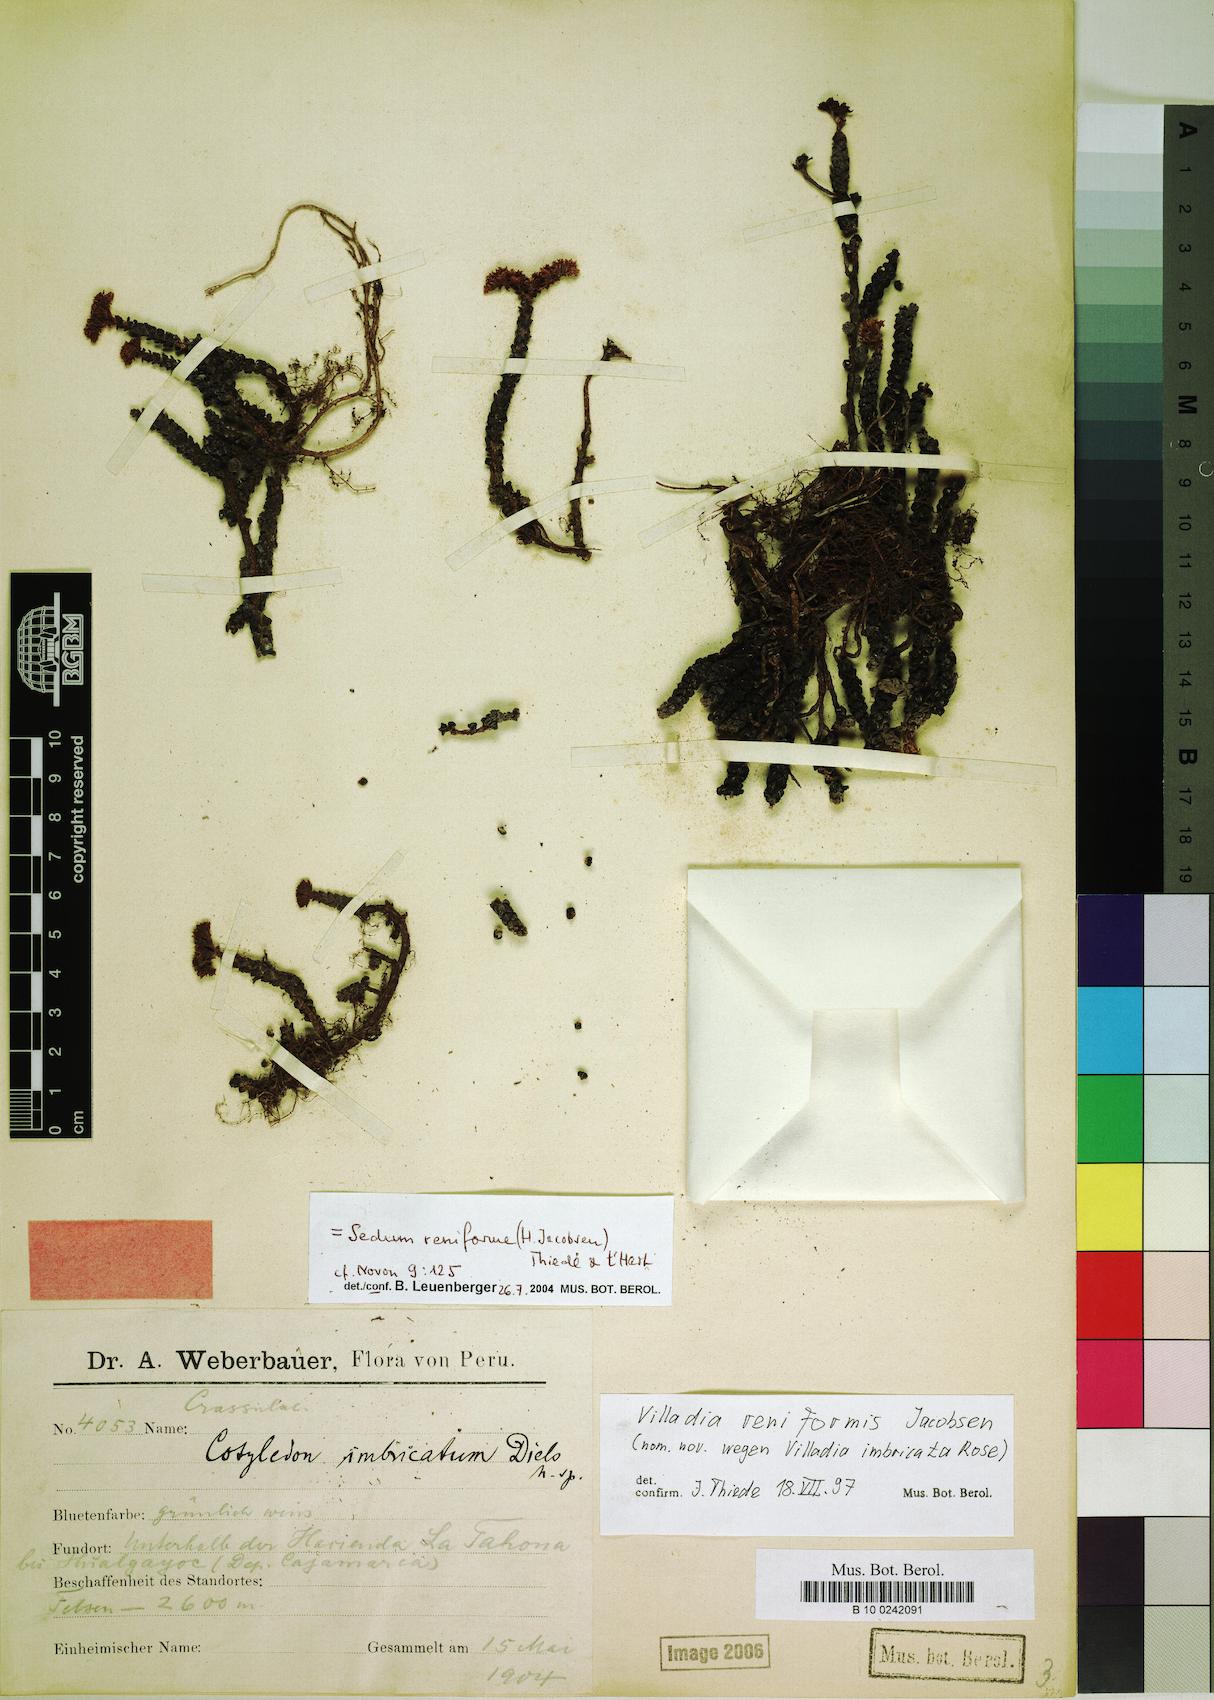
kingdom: Plantae
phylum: Tracheophyta
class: Magnoliopsida
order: Saxifragales
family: Crassulaceae
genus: Sedum
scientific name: Sedum reniforme
